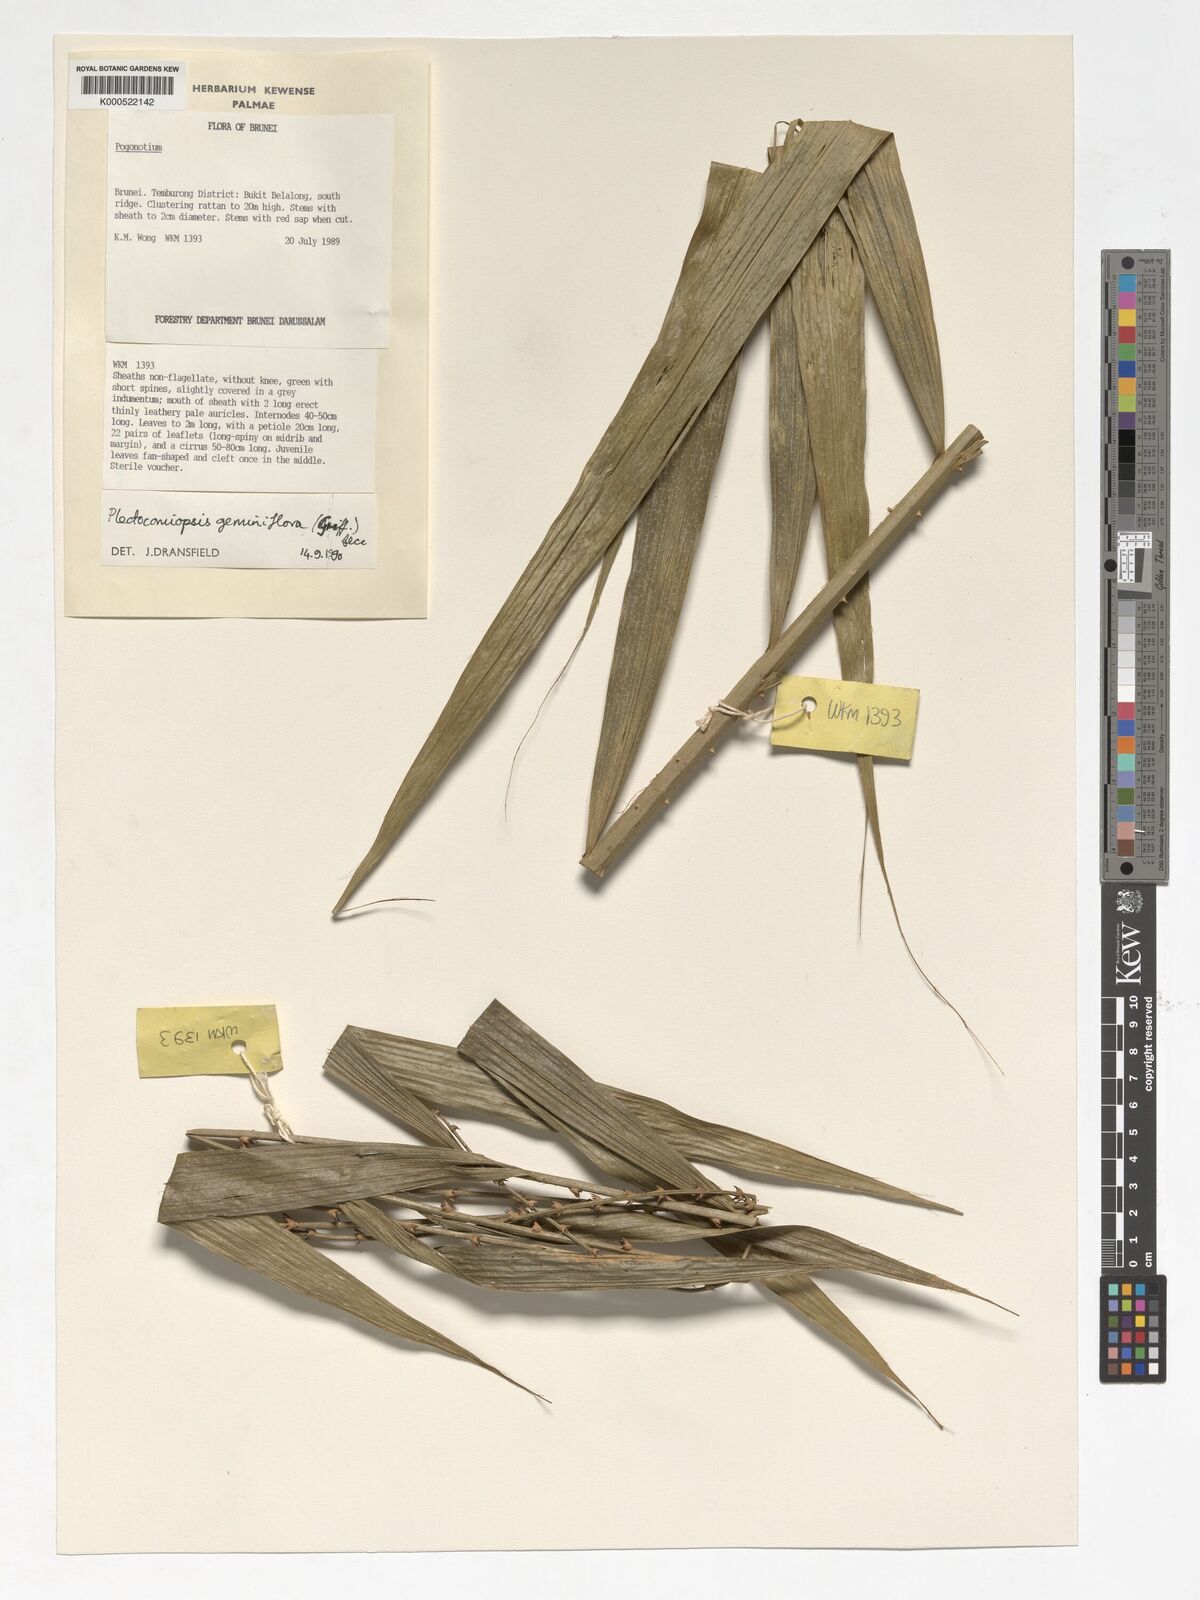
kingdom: Plantae
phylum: Tracheophyta
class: Liliopsida
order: Arecales
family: Arecaceae
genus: Plectocomiopsis
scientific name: Plectocomiopsis geminiflora
